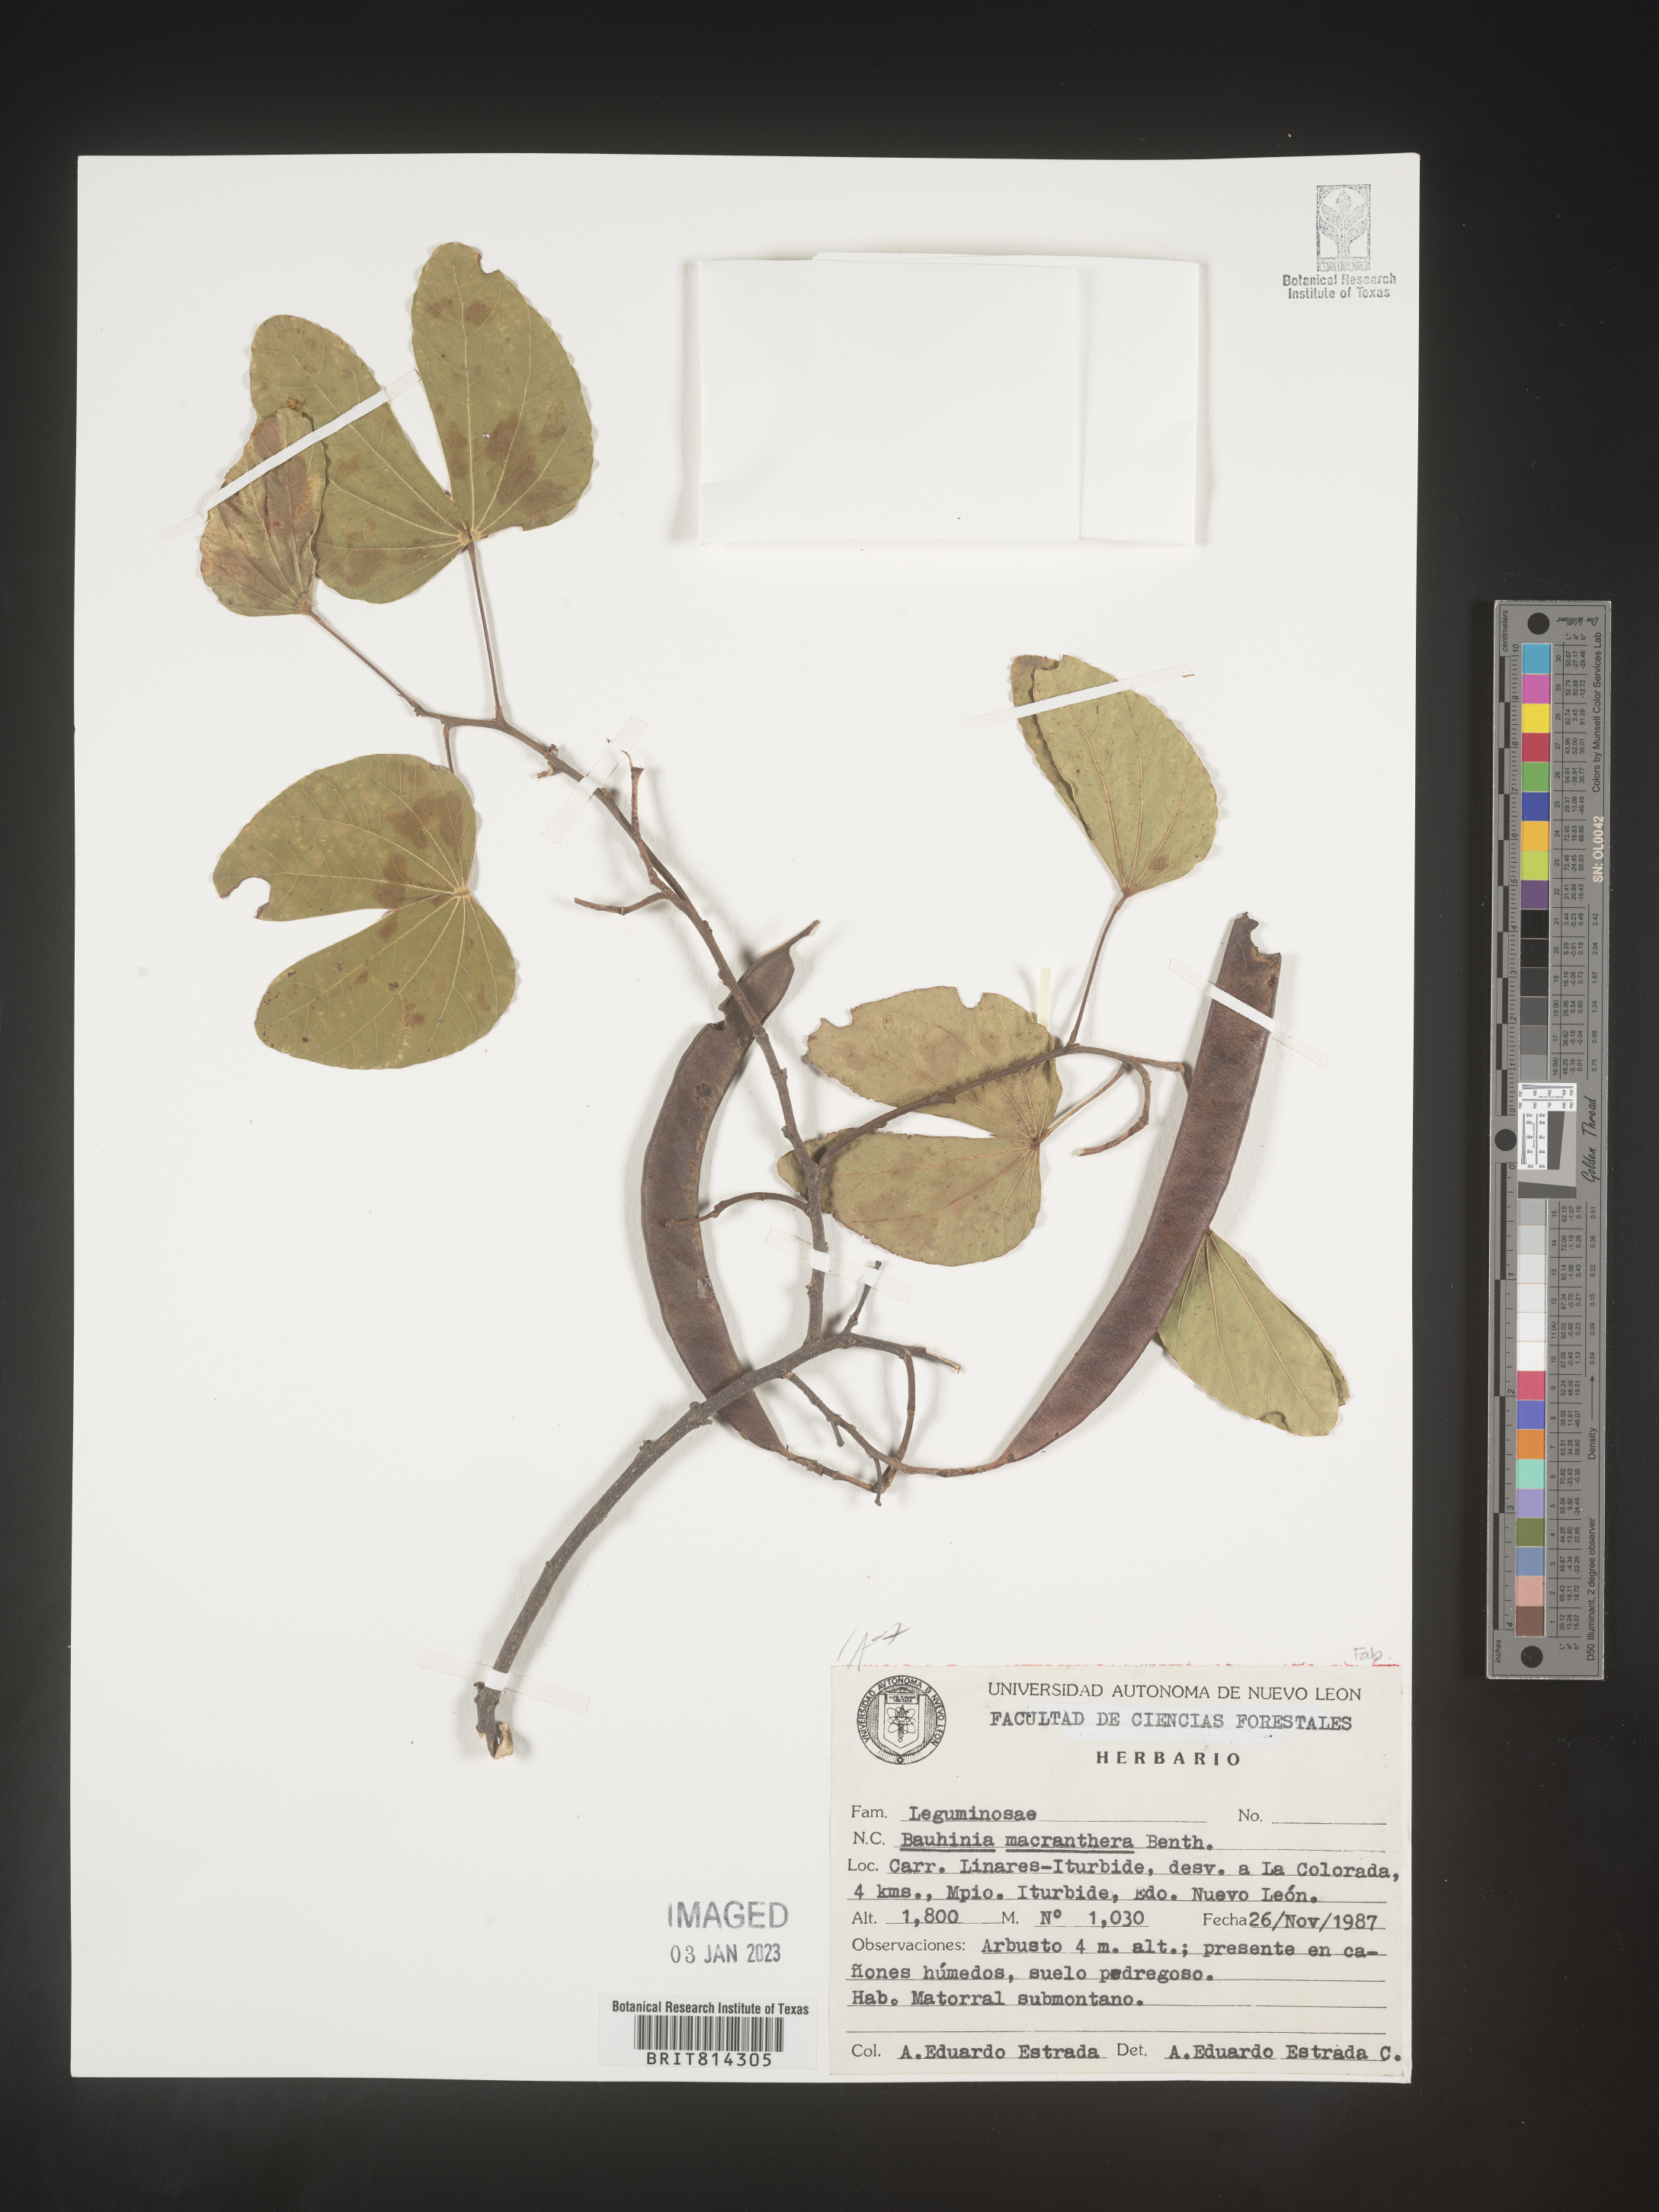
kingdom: Plantae
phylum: Tracheophyta
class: Magnoliopsida
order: Fabales
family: Fabaceae
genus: Bauhinia
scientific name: Bauhinia
